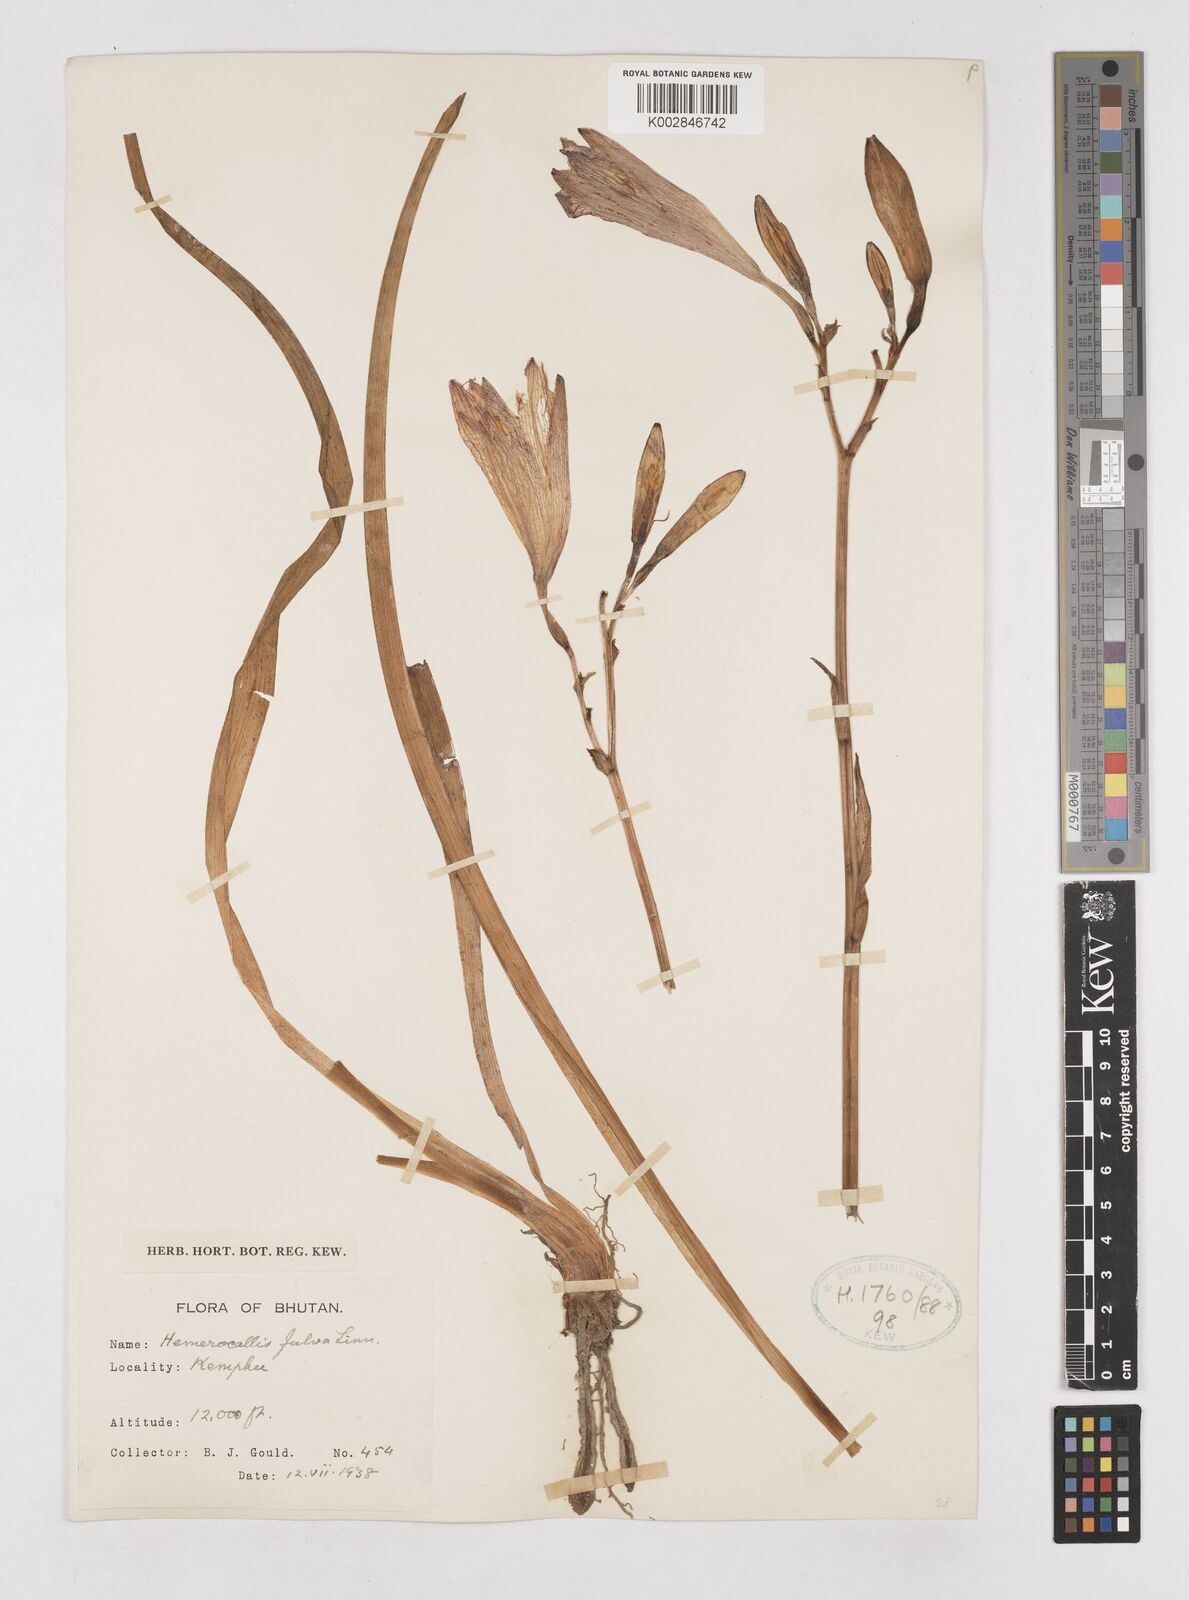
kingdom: Plantae
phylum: Tracheophyta
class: Liliopsida
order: Asparagales
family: Asphodelaceae
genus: Hemerocallis
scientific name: Hemerocallis fulva
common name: Orange day-lily
